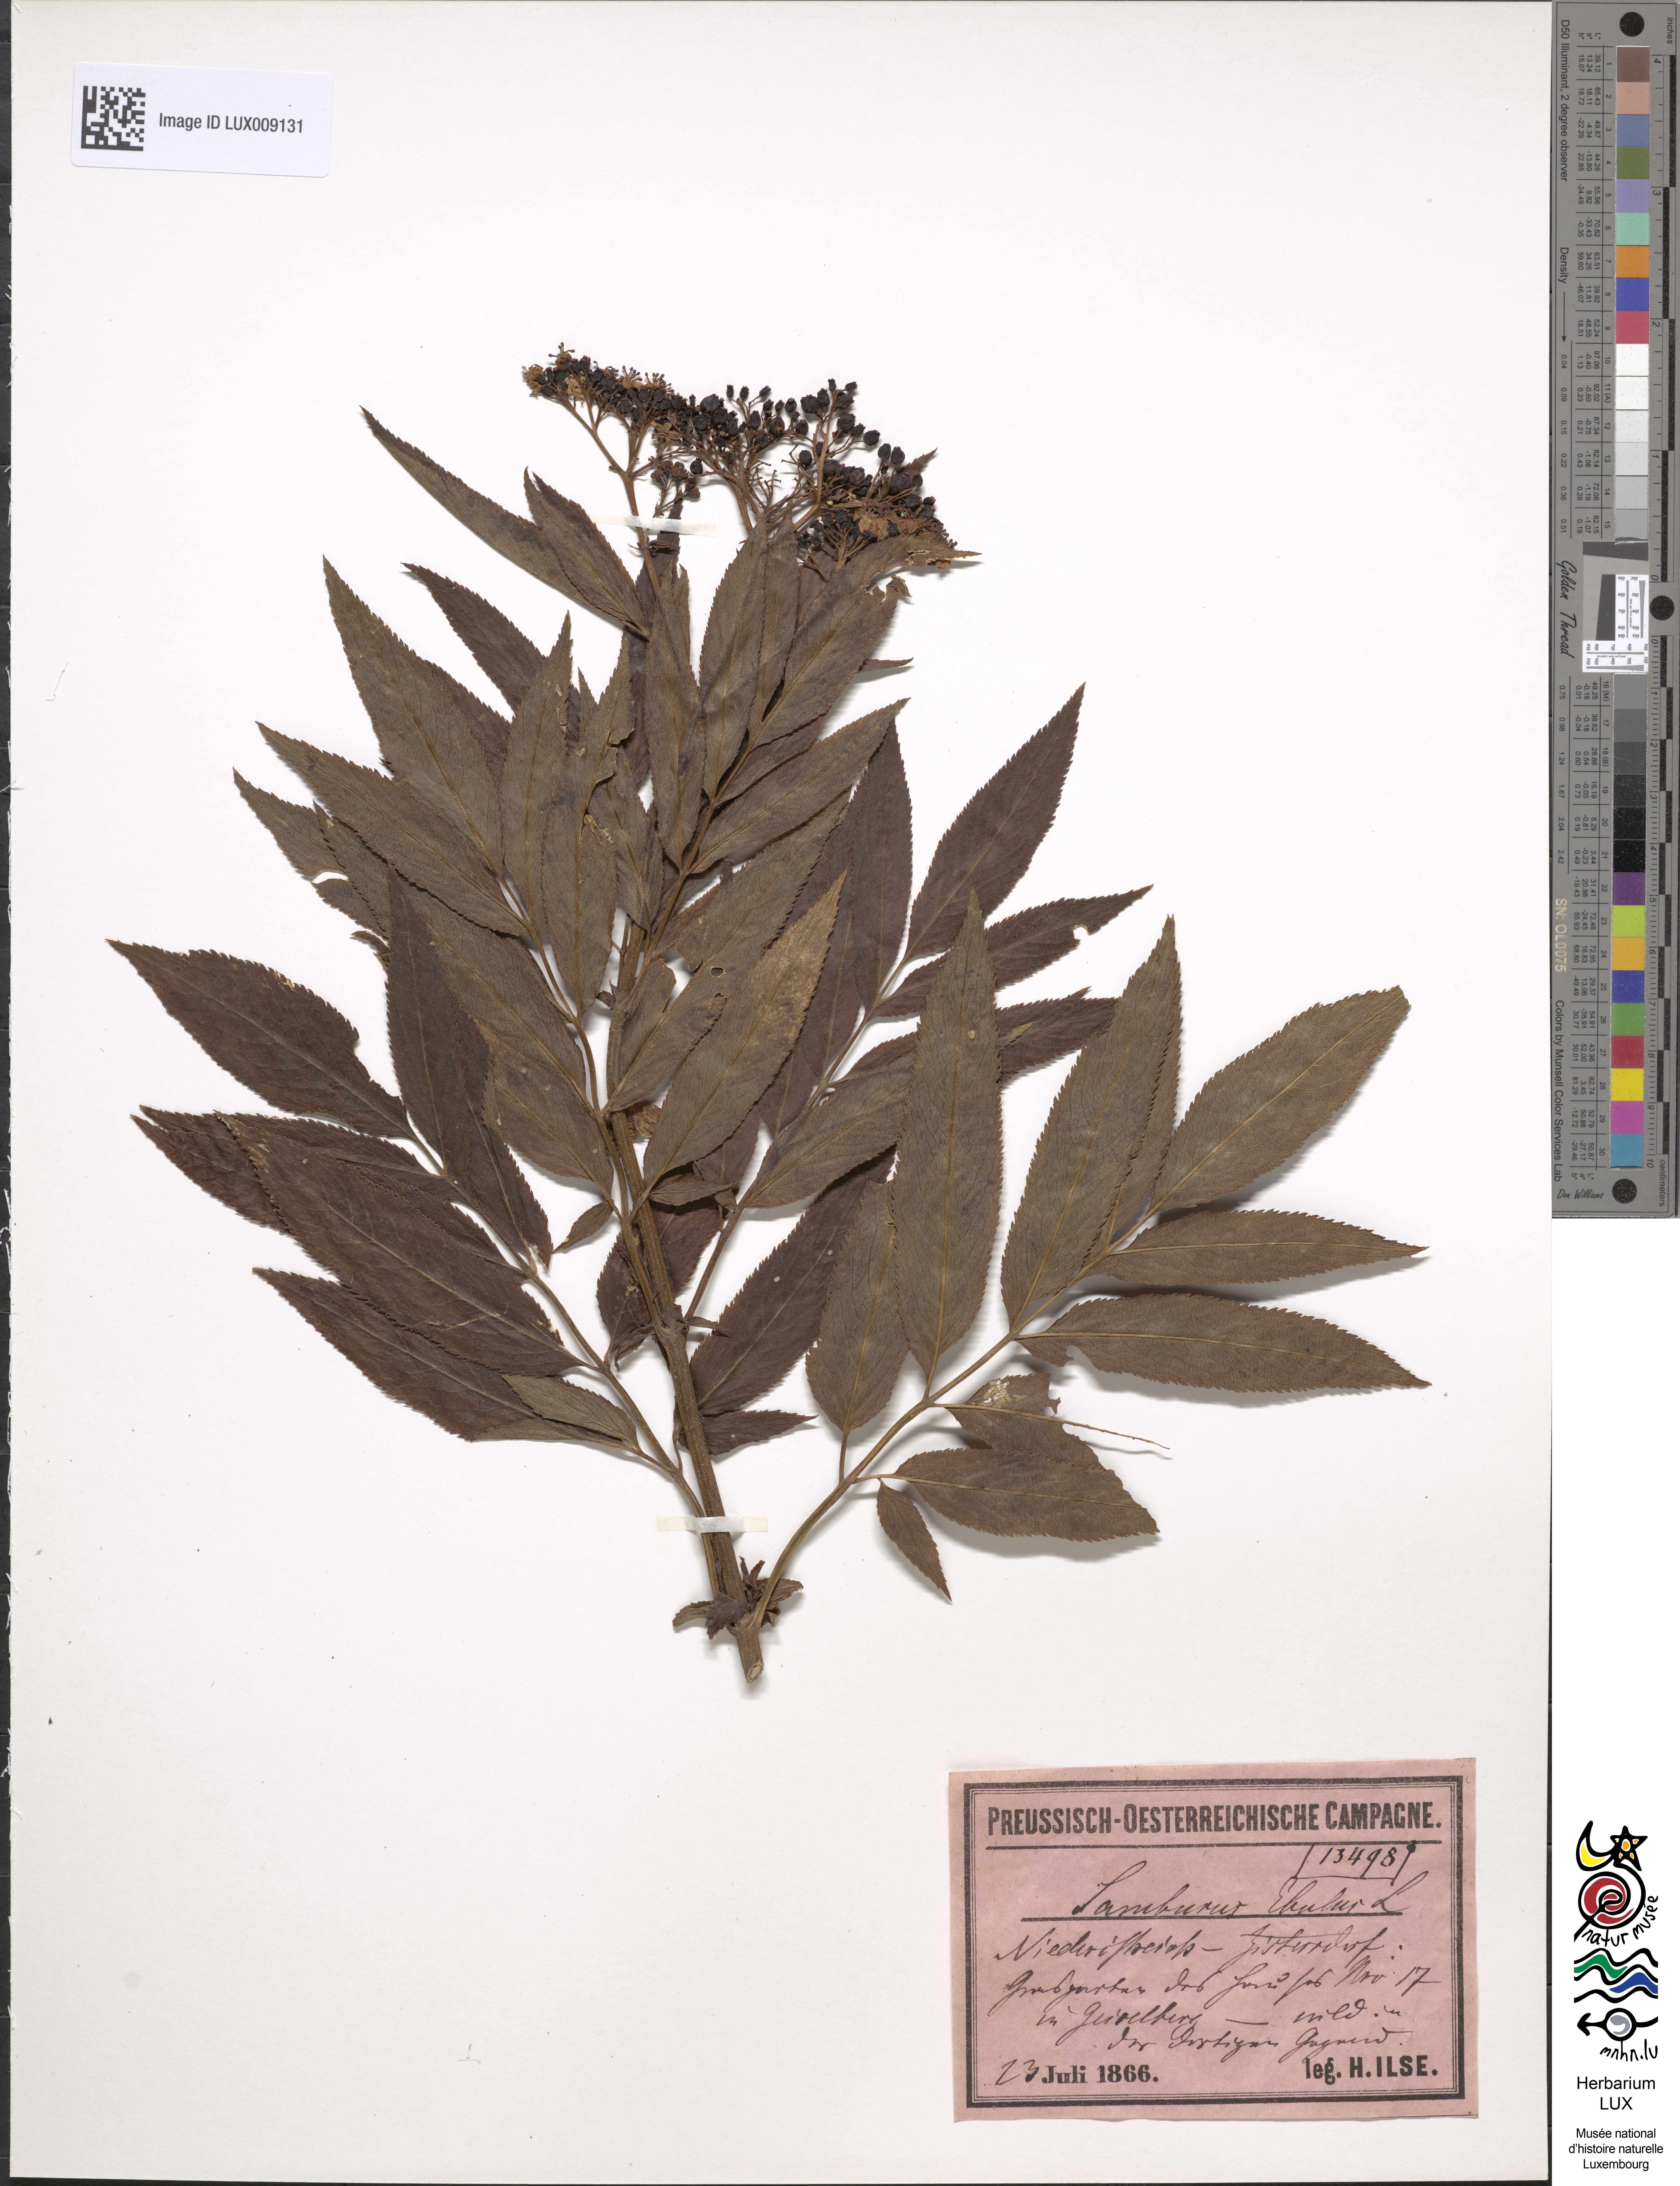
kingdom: Plantae
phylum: Tracheophyta
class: Magnoliopsida
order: Dipsacales
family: Viburnaceae
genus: Sambucus
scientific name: Sambucus ebulus
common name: Dwarf elder
